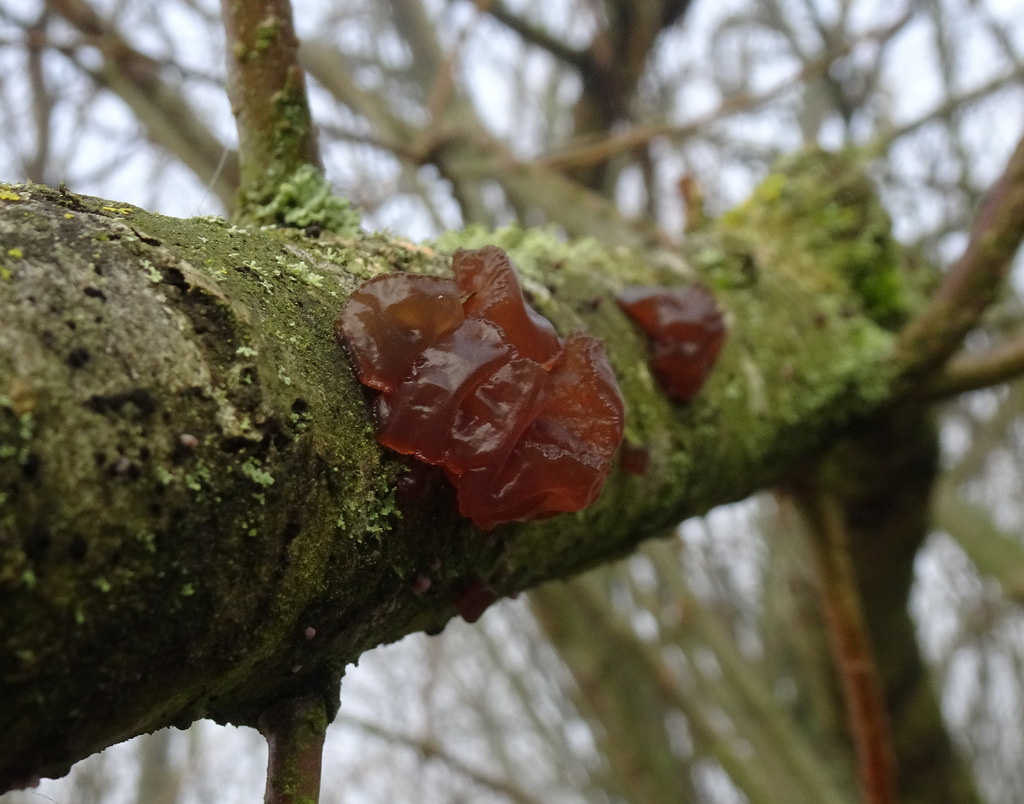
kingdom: Fungi
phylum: Basidiomycota
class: Agaricomycetes
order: Auriculariales
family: Auriculariaceae
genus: Exidia
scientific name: Exidia recisa
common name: pile-bævretop
